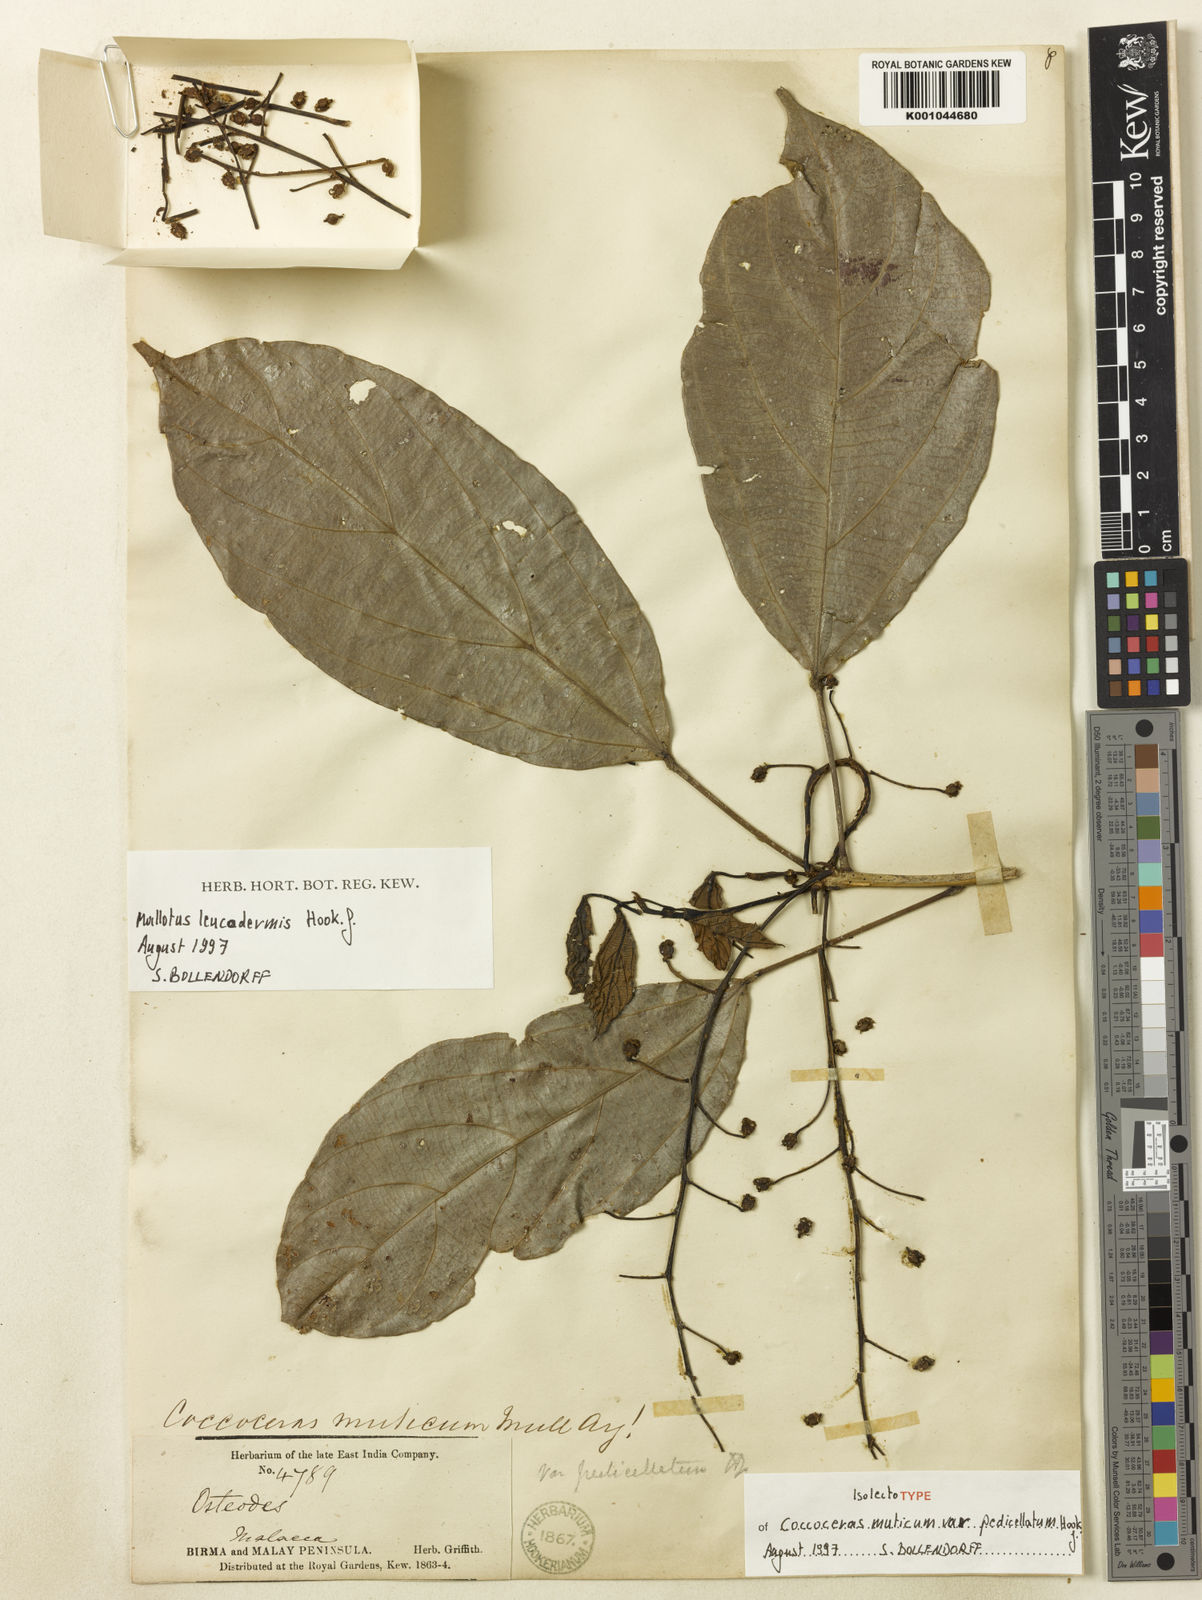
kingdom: Plantae
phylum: Tracheophyta
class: Magnoliopsida
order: Malpighiales
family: Euphorbiaceae
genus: Mallotus
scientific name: Mallotus leucodermis
